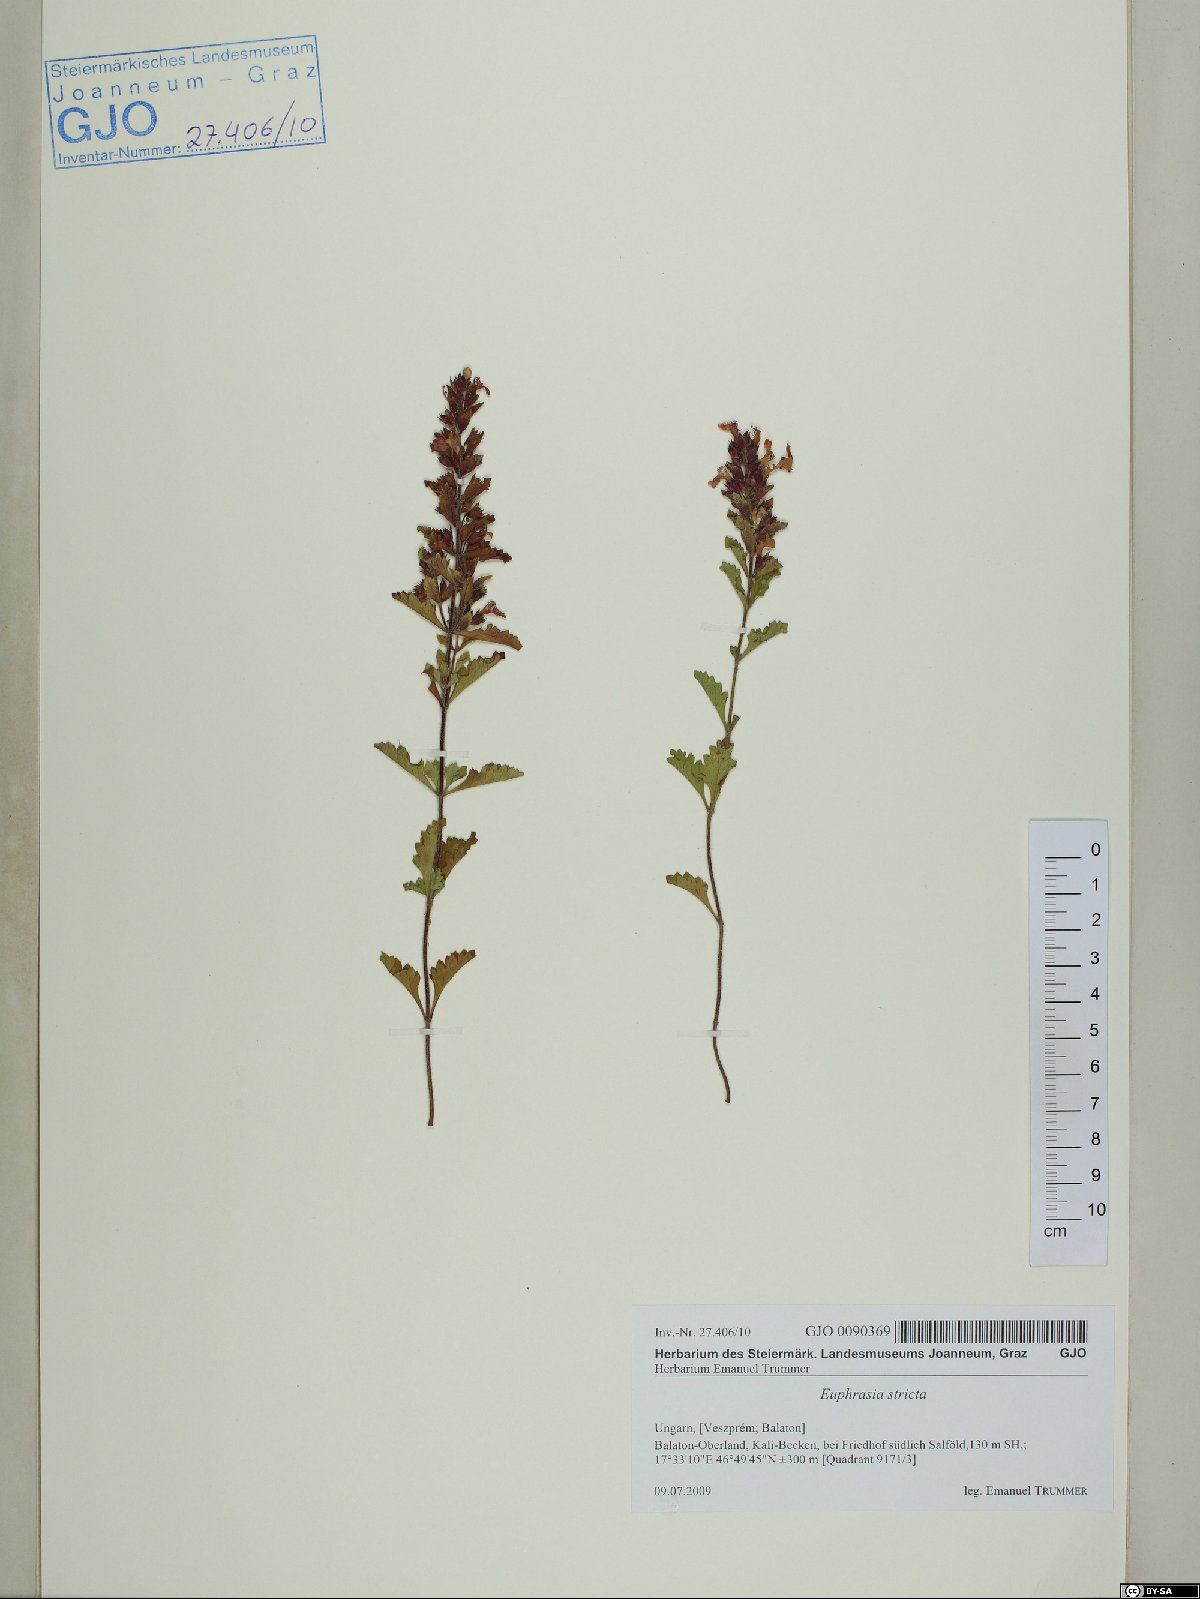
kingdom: Plantae
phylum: Tracheophyta
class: Magnoliopsida
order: Lamiales
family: Orobanchaceae
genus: Euphrasia
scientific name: Euphrasia stricta
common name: Drug eyebright
